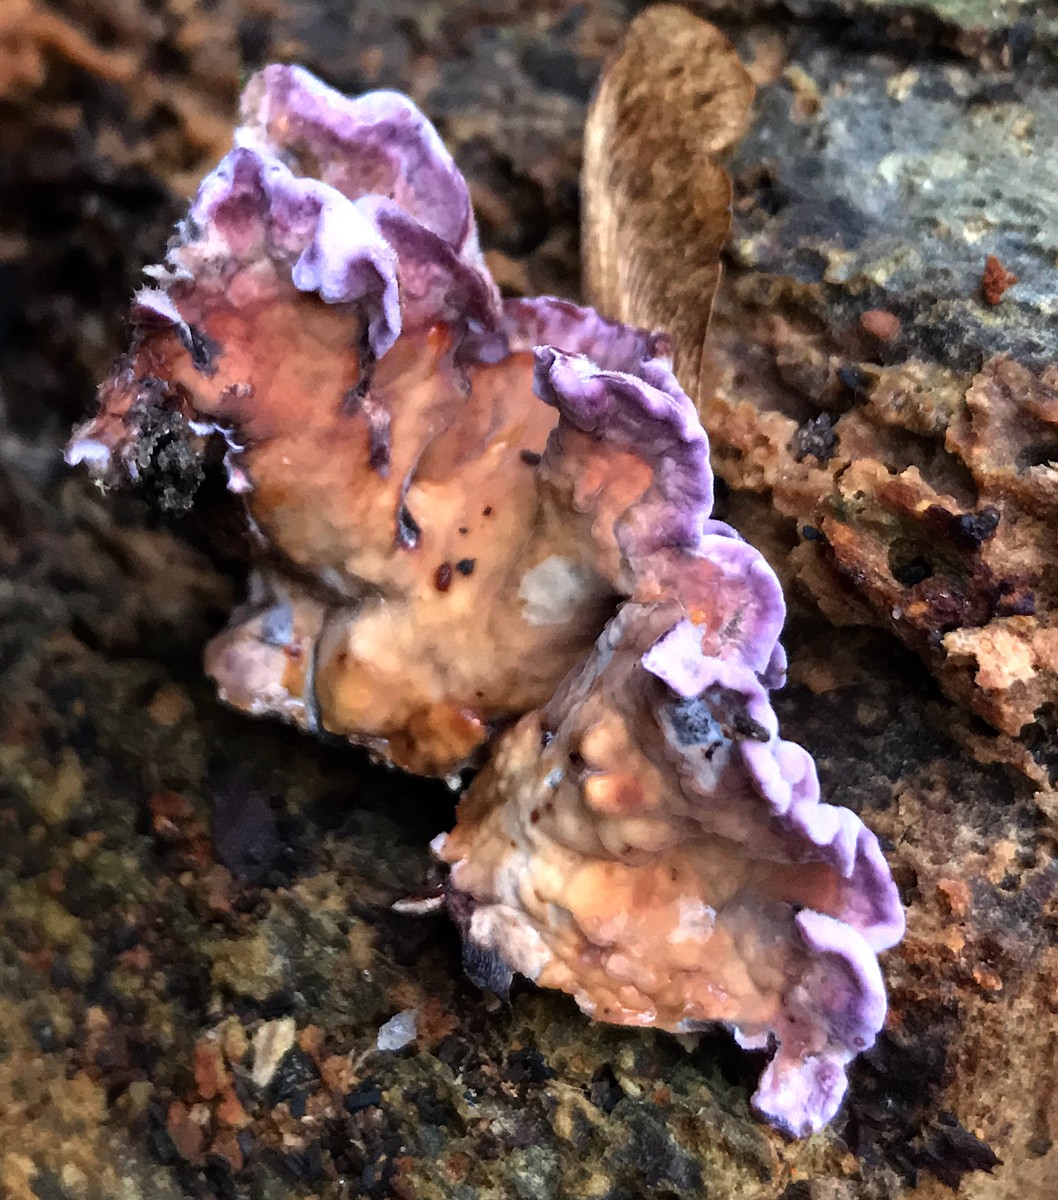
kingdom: Fungi
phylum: Basidiomycota
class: Agaricomycetes
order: Agaricales
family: Cyphellaceae
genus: Chondrostereum
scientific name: Chondrostereum purpureum
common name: purpurlædersvamp
